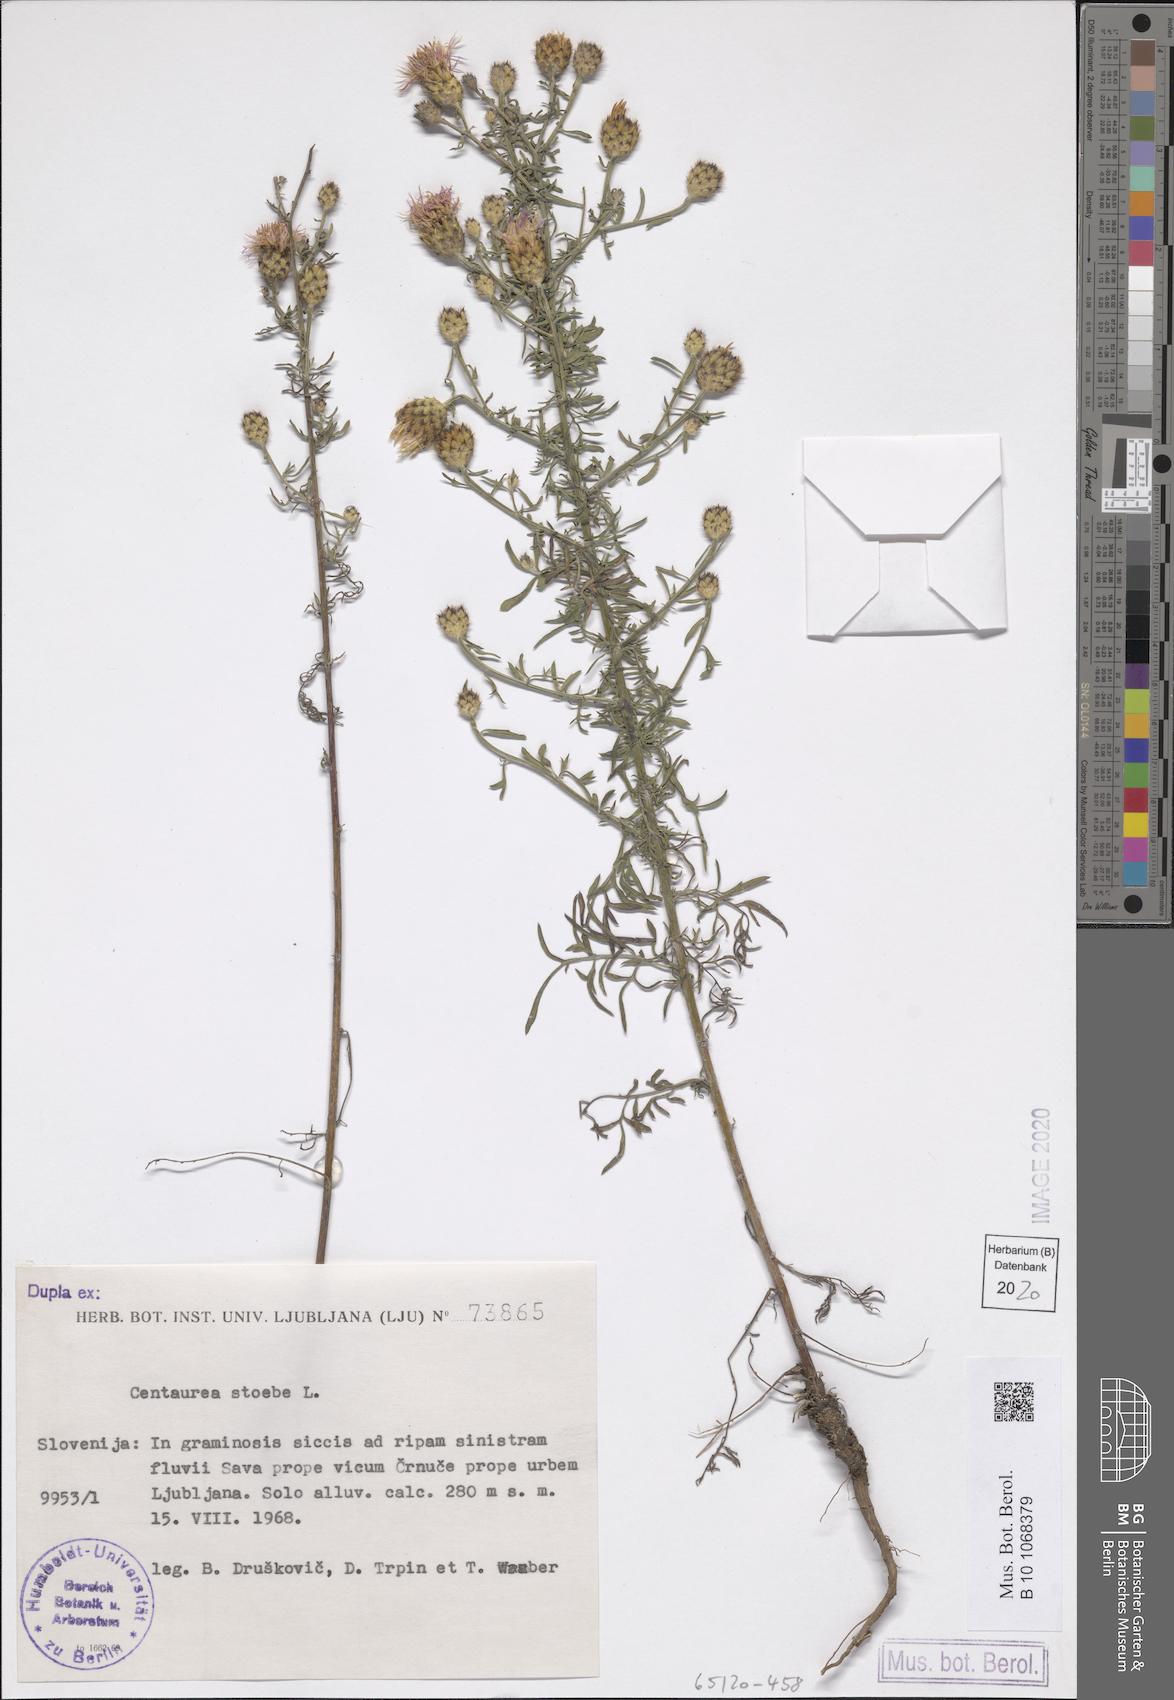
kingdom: Plantae
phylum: Tracheophyta
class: Magnoliopsida
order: Asterales
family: Asteraceae
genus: Centaurea
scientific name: Centaurea stoebe
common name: Spotted knapweed
